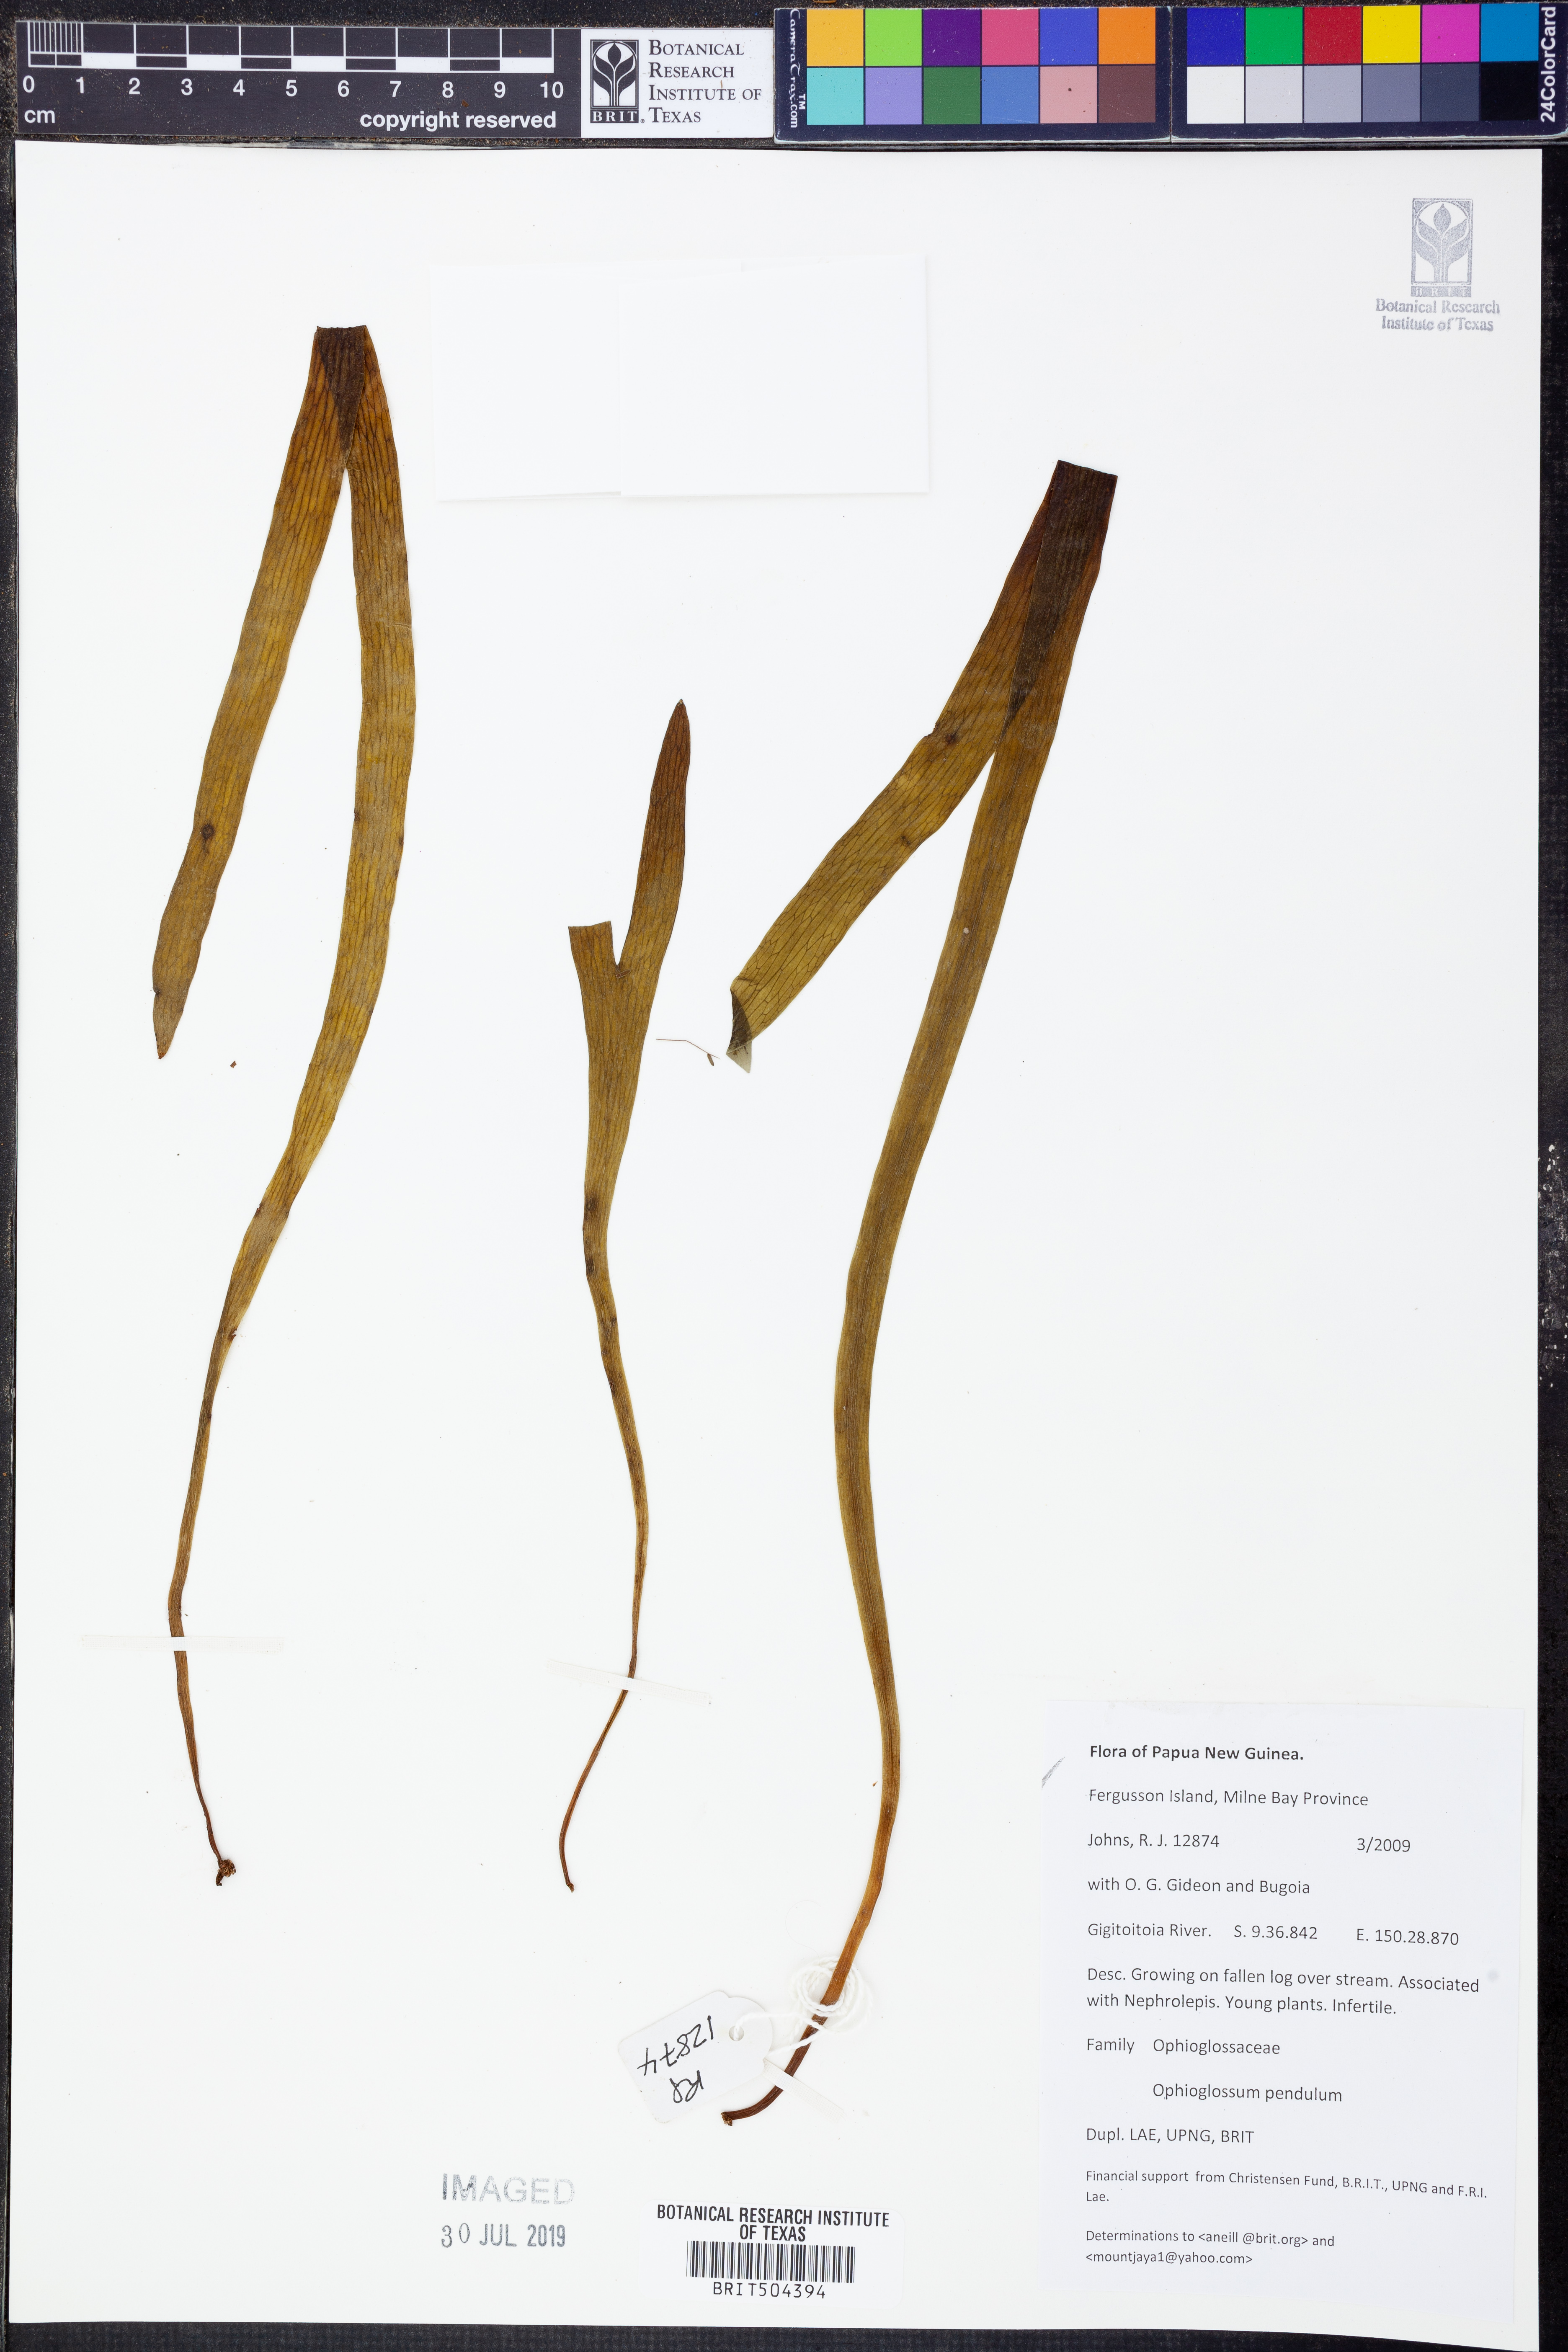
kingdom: Plantae
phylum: Tracheophyta
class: Polypodiopsida
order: Ophioglossales
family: Ophioglossaceae
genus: Ophioderma
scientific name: Ophioderma pendulum
